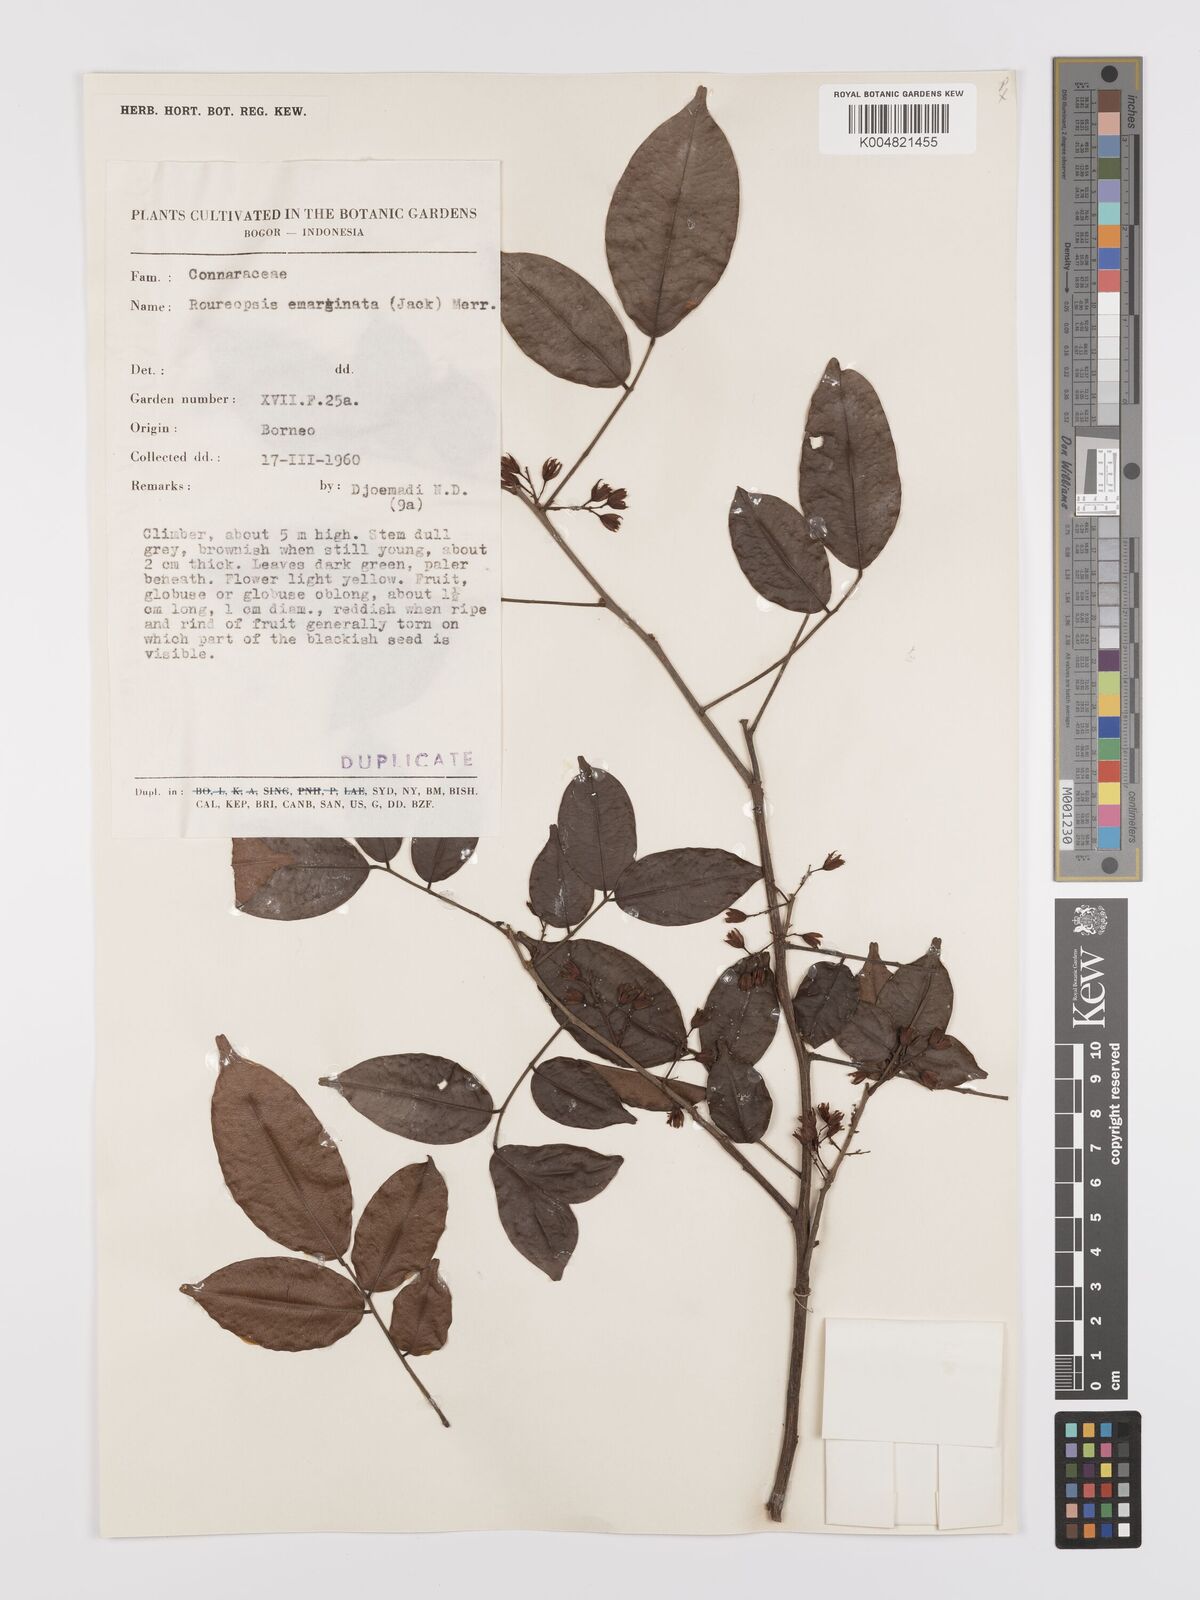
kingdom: Plantae
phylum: Tracheophyta
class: Magnoliopsida
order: Oxalidales
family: Connaraceae
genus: Rourea
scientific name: Rourea emarginata
